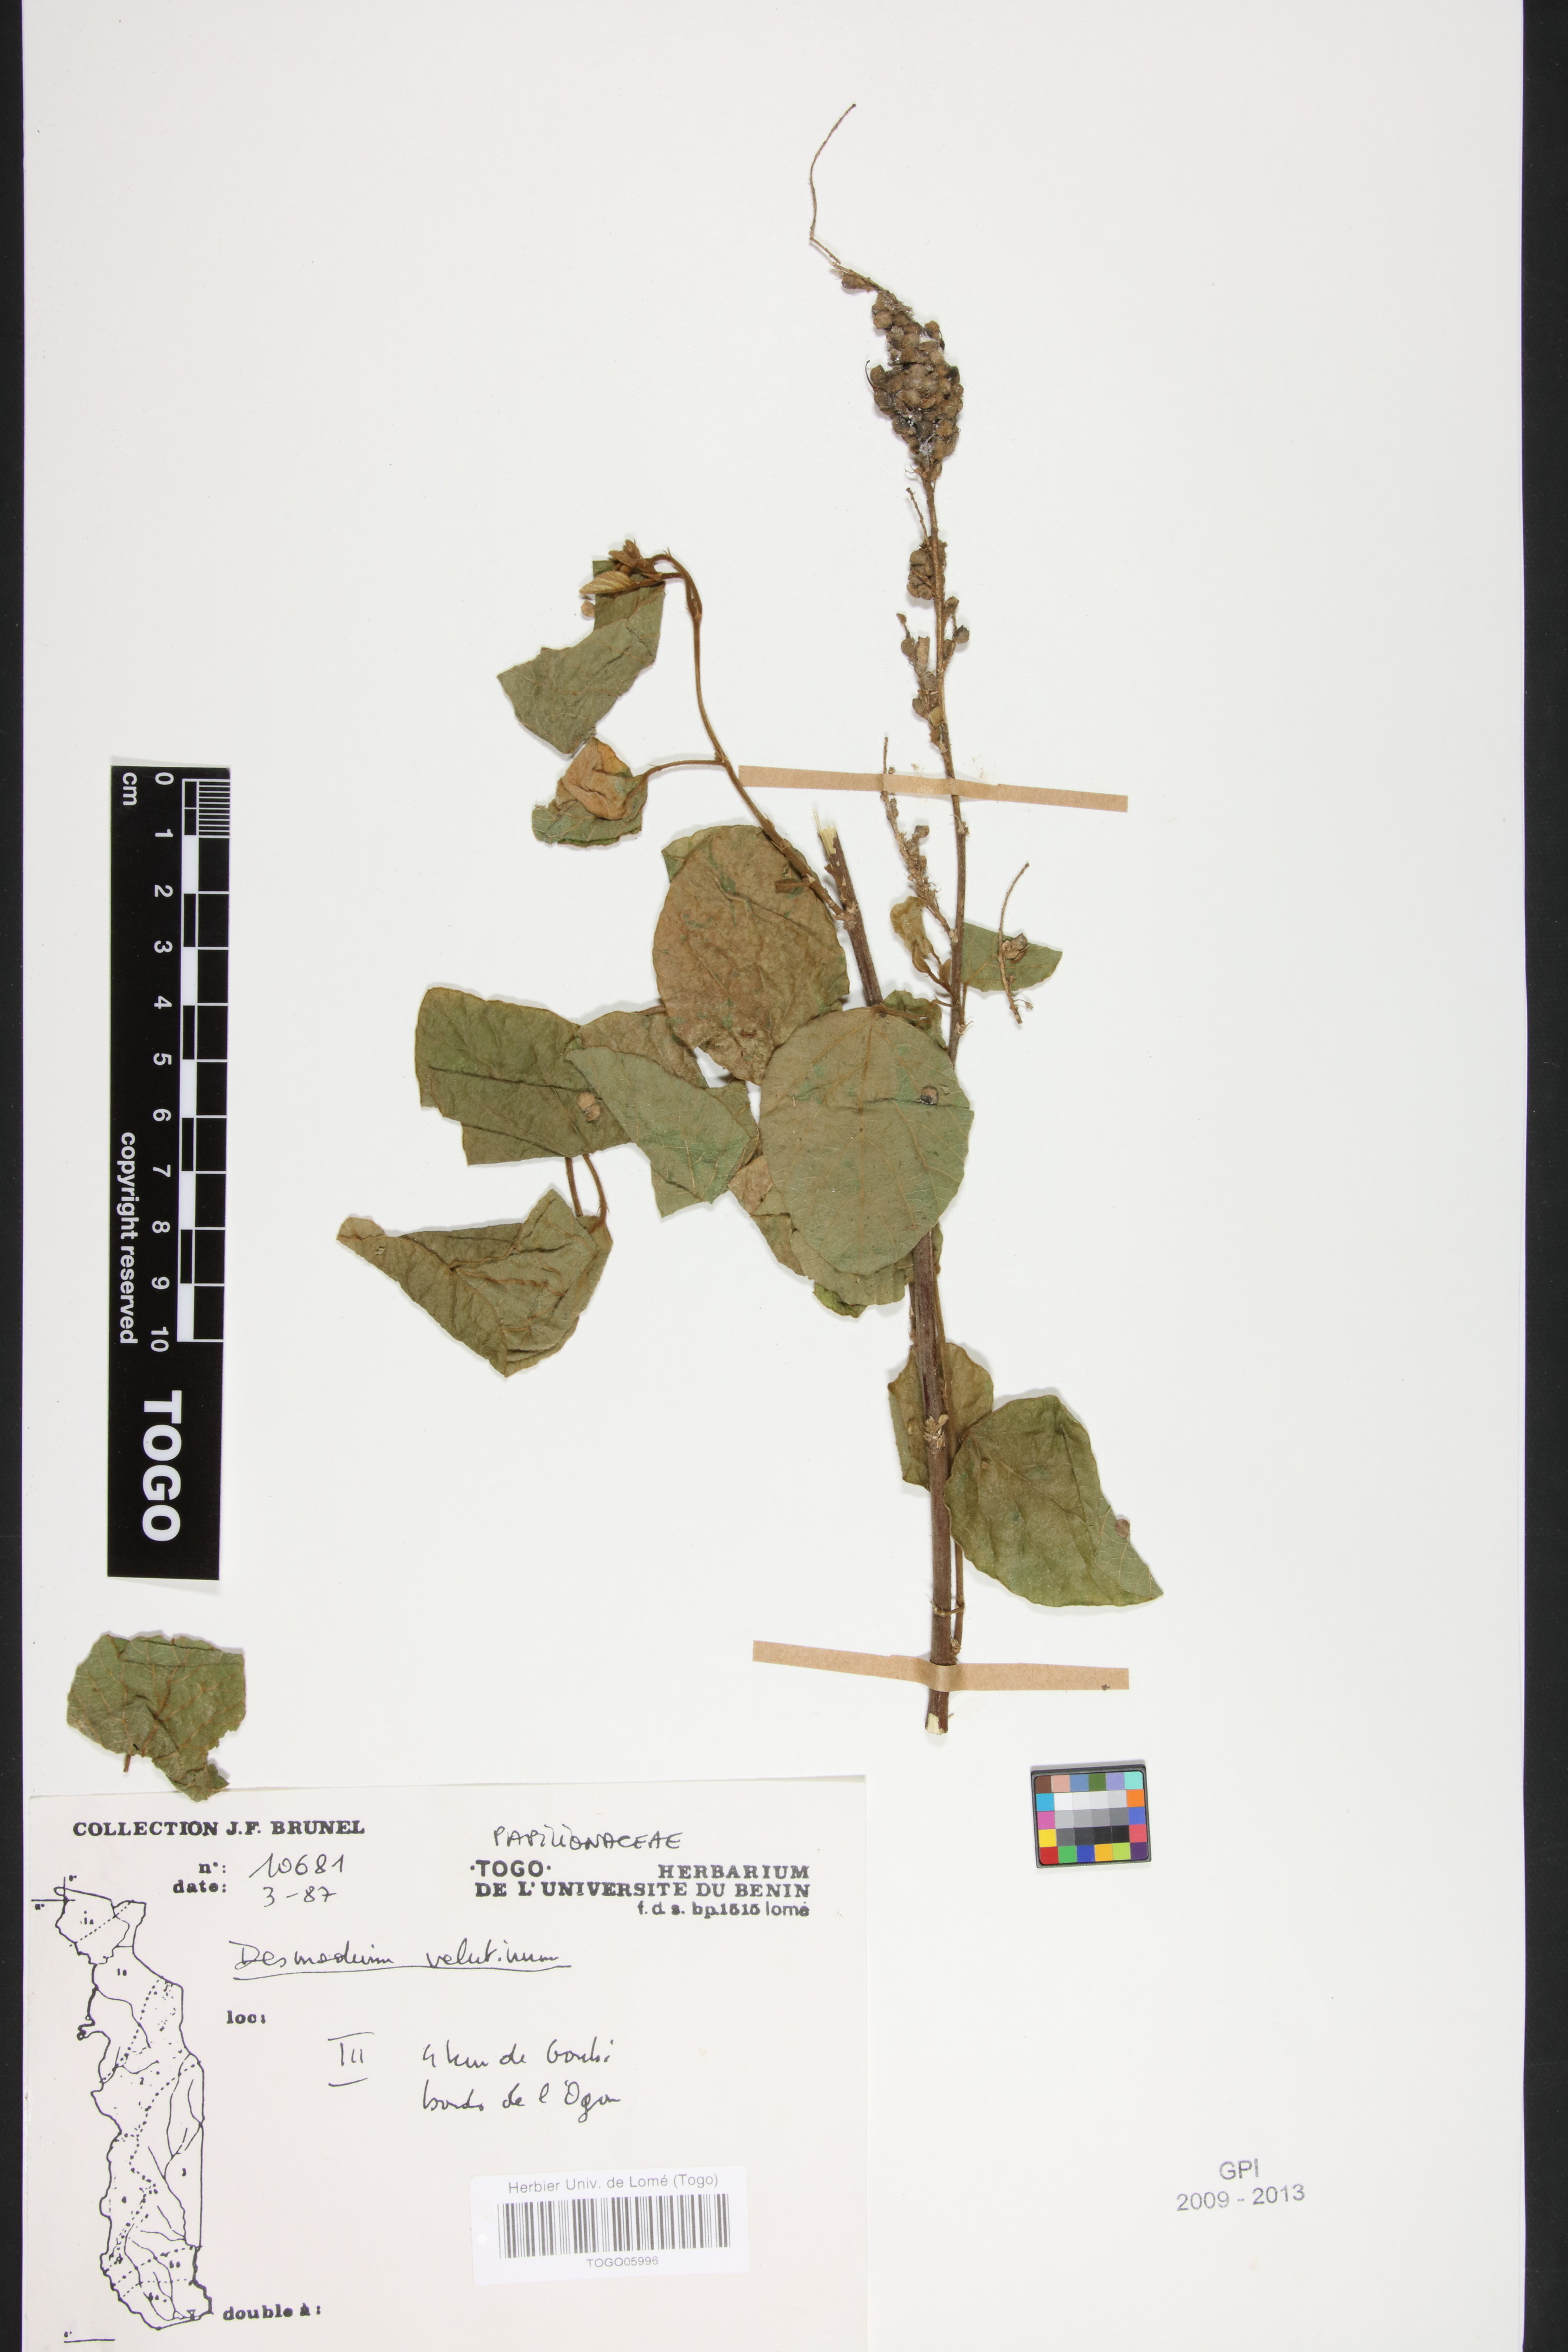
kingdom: Plantae
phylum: Tracheophyta
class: Magnoliopsida
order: Fabales
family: Fabaceae
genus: Polhillides
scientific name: Polhillides velutina
